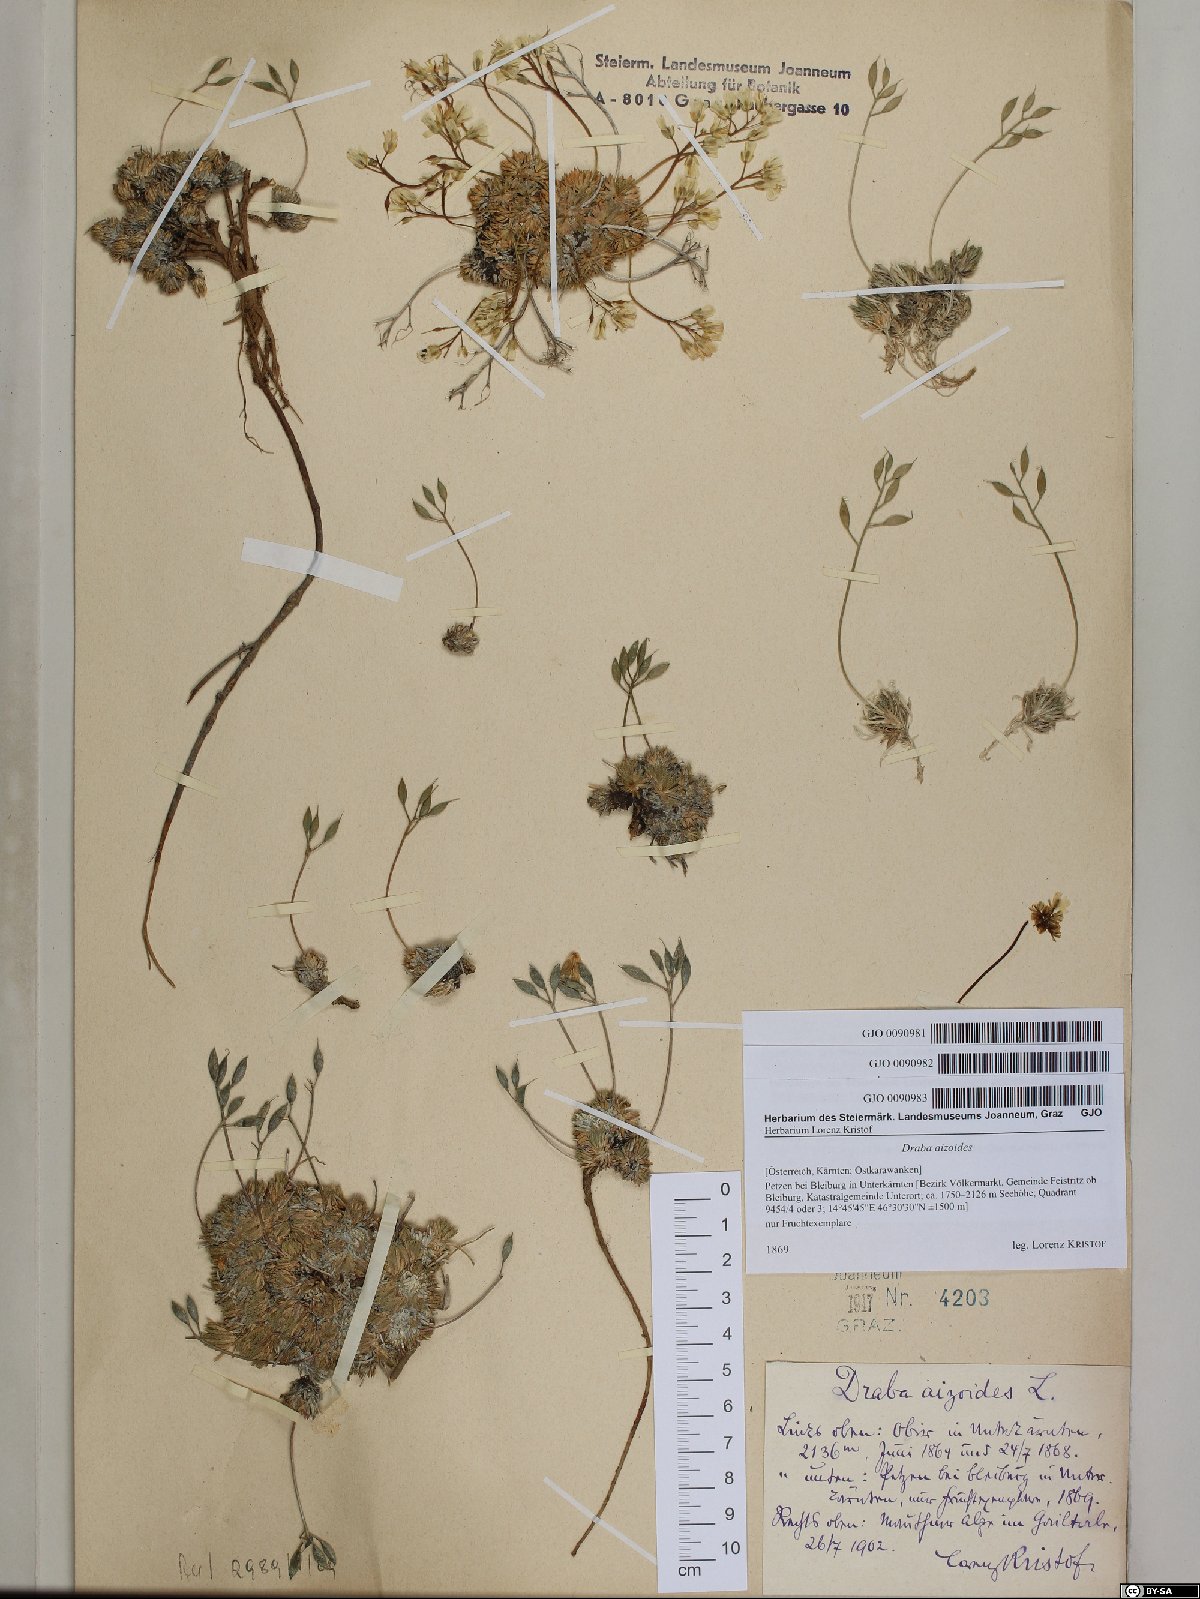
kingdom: Plantae
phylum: Tracheophyta
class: Magnoliopsida
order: Brassicales
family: Brassicaceae
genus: Draba
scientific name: Draba aizoides
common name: Yellow whitlowgrass
